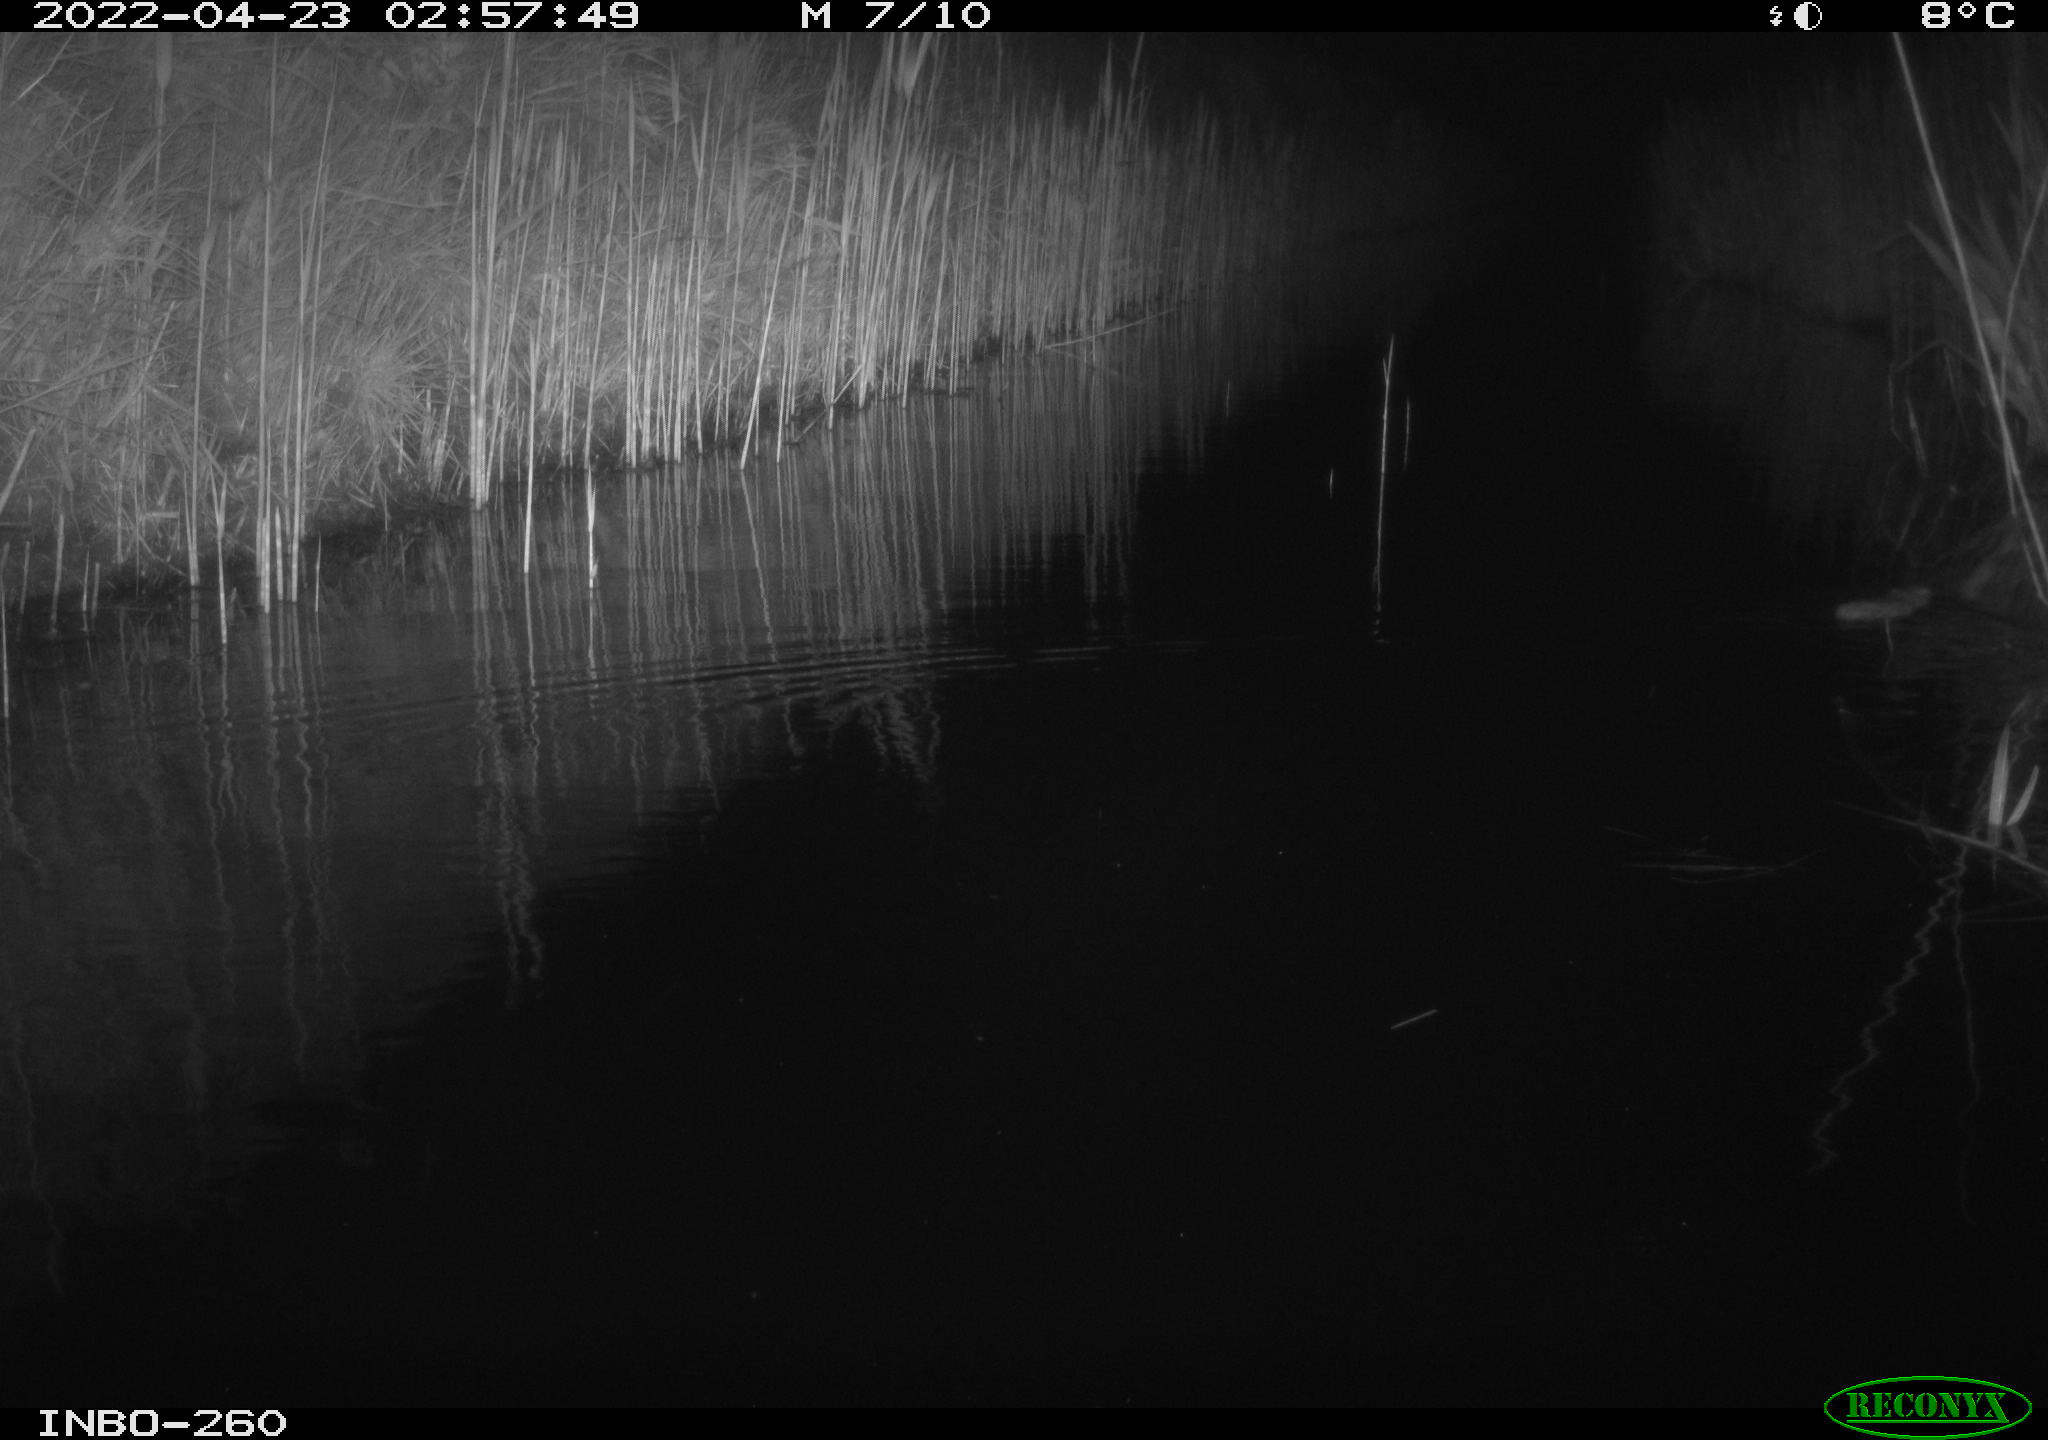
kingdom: Animalia
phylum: Chordata
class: Mammalia
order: Rodentia
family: Muridae
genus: Rattus
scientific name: Rattus norvegicus
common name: Brown rat
